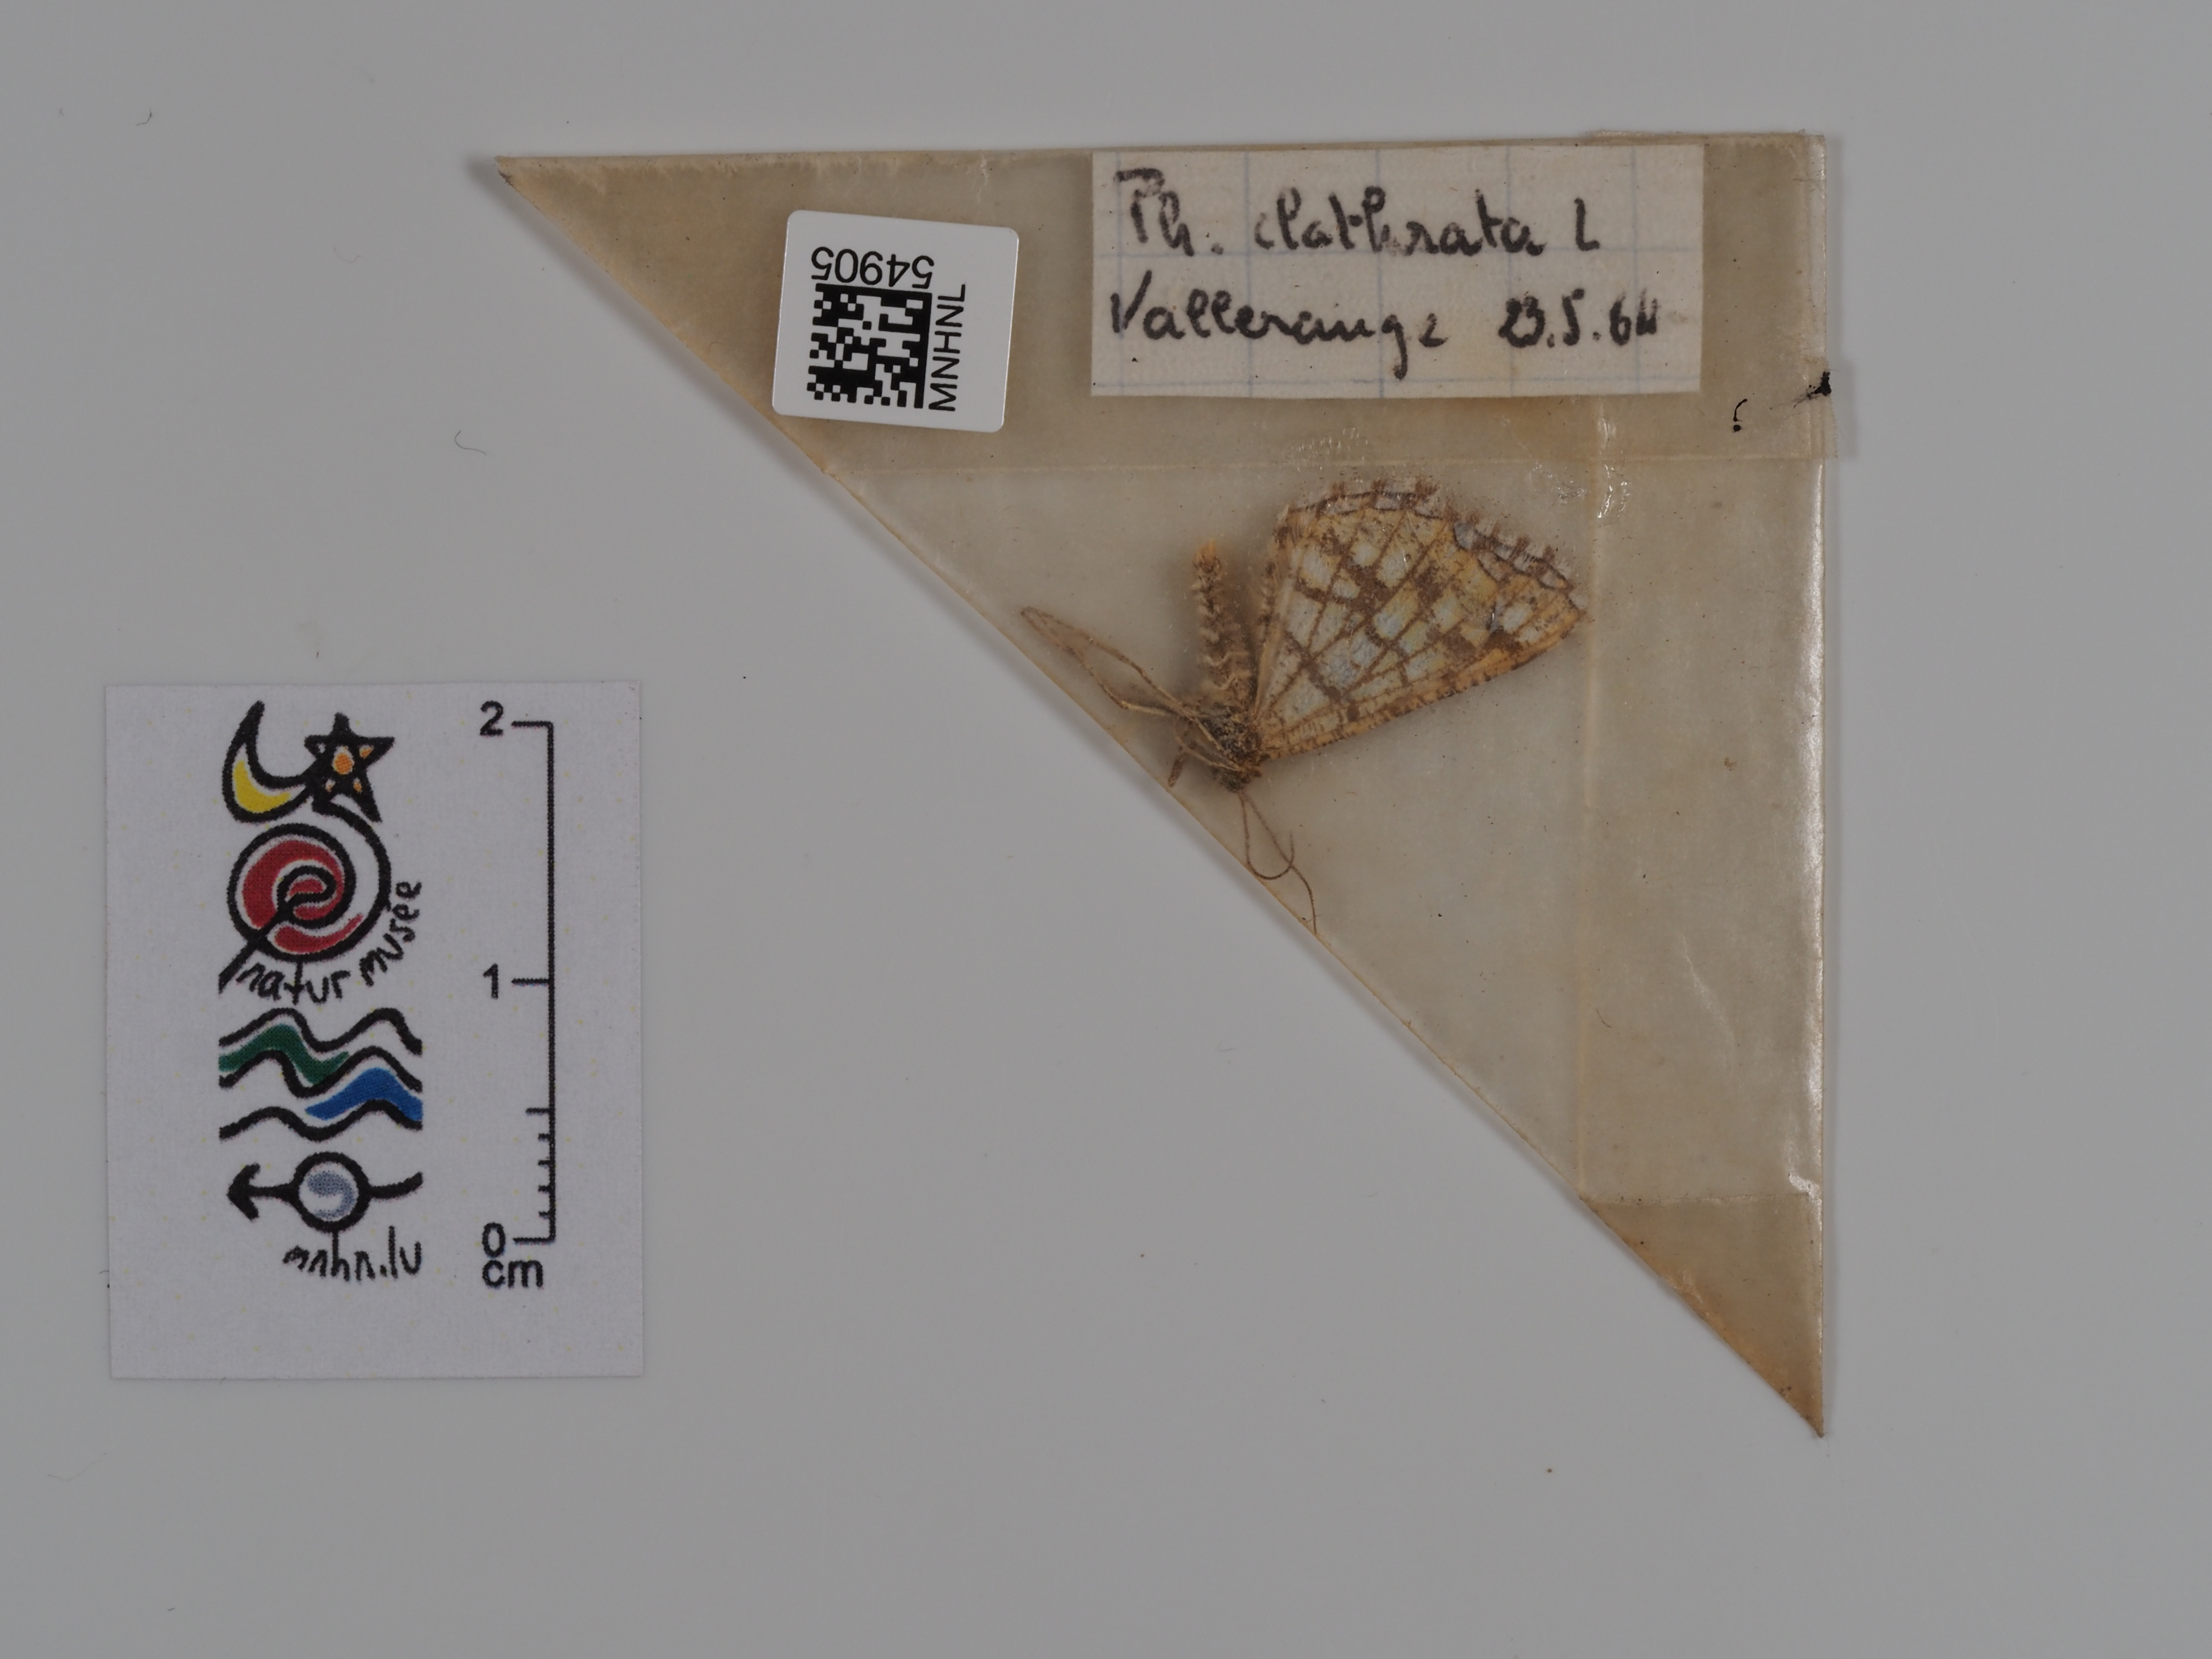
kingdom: Animalia
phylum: Arthropoda
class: Insecta
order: Lepidoptera
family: Geometridae
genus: Chiasmia
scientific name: Chiasmia clathrata
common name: Latticed heath
